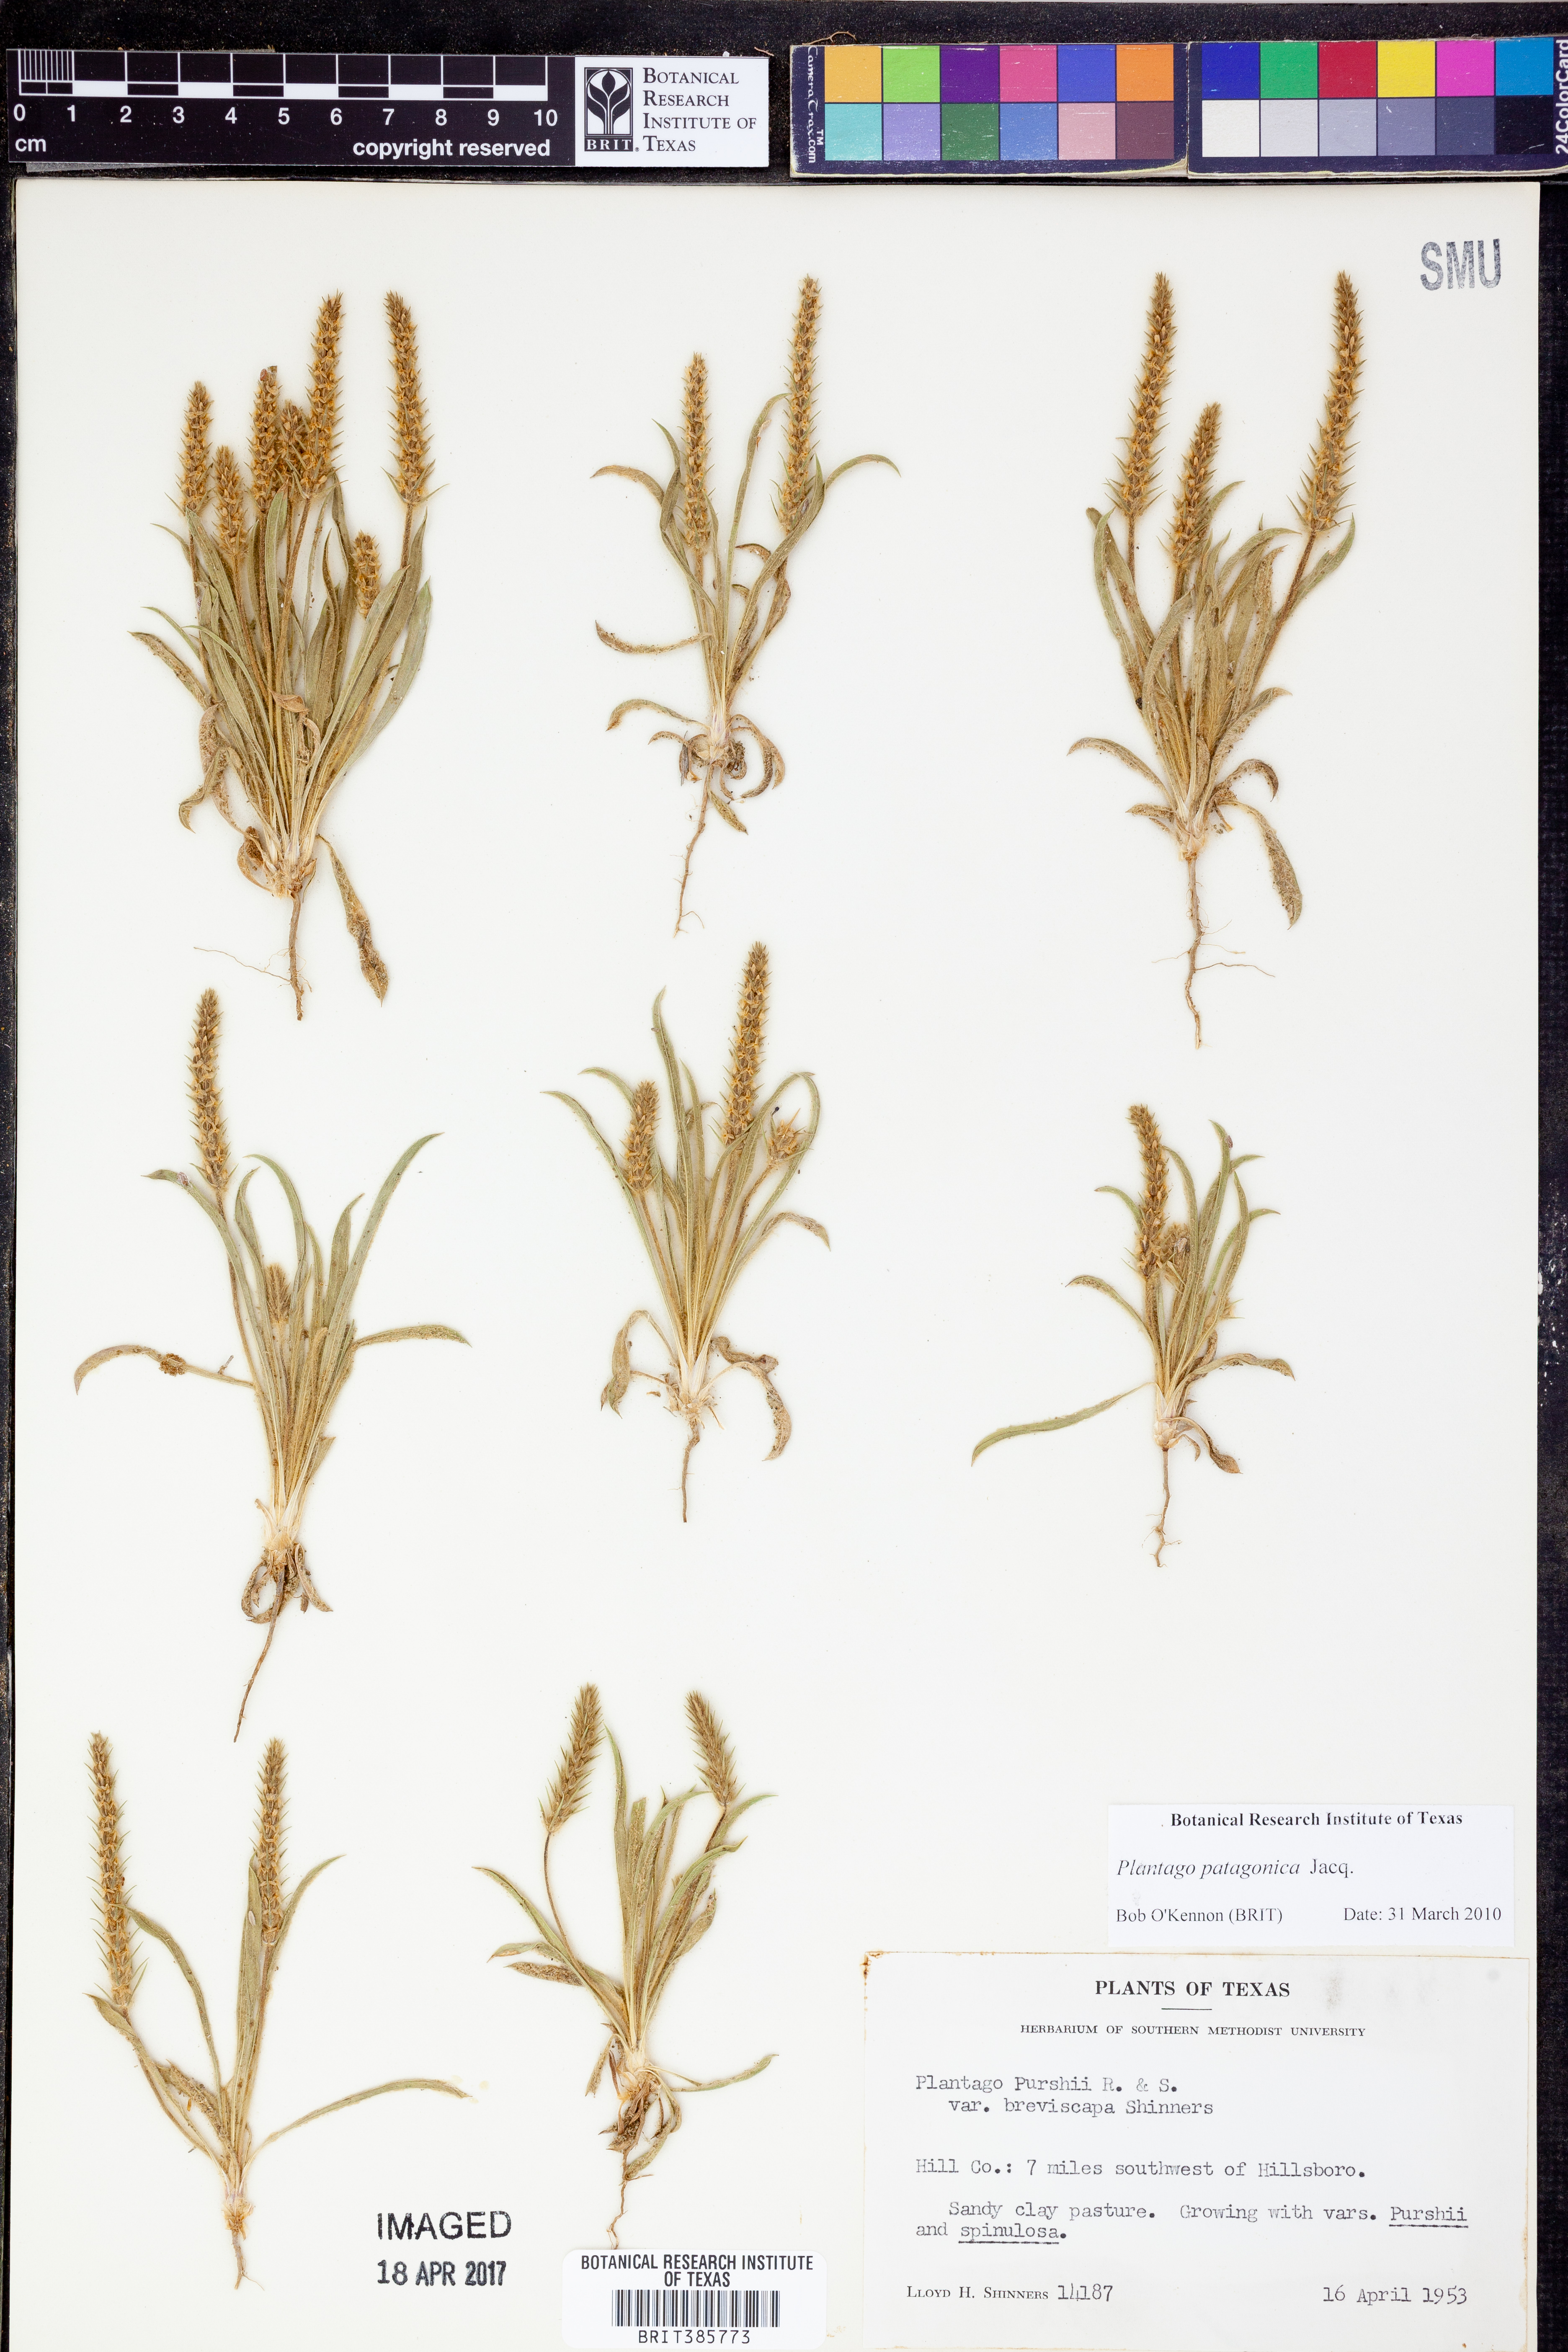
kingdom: Plantae
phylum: Tracheophyta
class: Magnoliopsida
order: Lamiales
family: Plantaginaceae
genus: Plantago
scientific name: Plantago patagonica
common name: Patagonia indian-wheat
